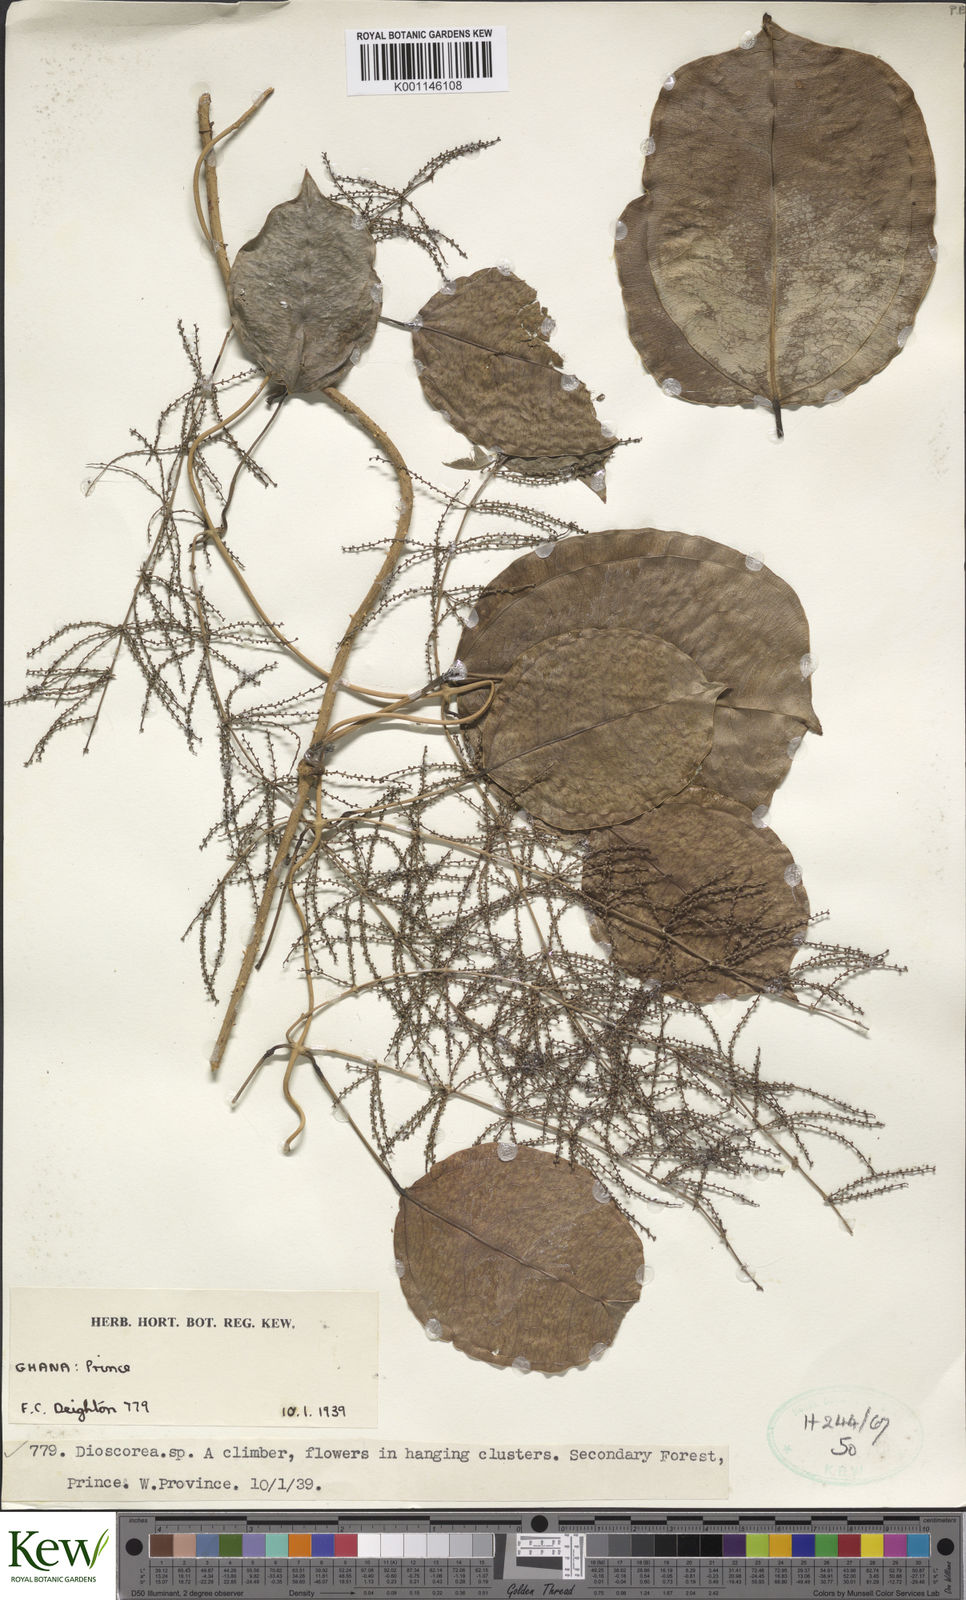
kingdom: Plantae
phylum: Tracheophyta
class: Liliopsida
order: Dioscoreales
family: Dioscoreaceae
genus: Dioscorea
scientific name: Dioscorea
